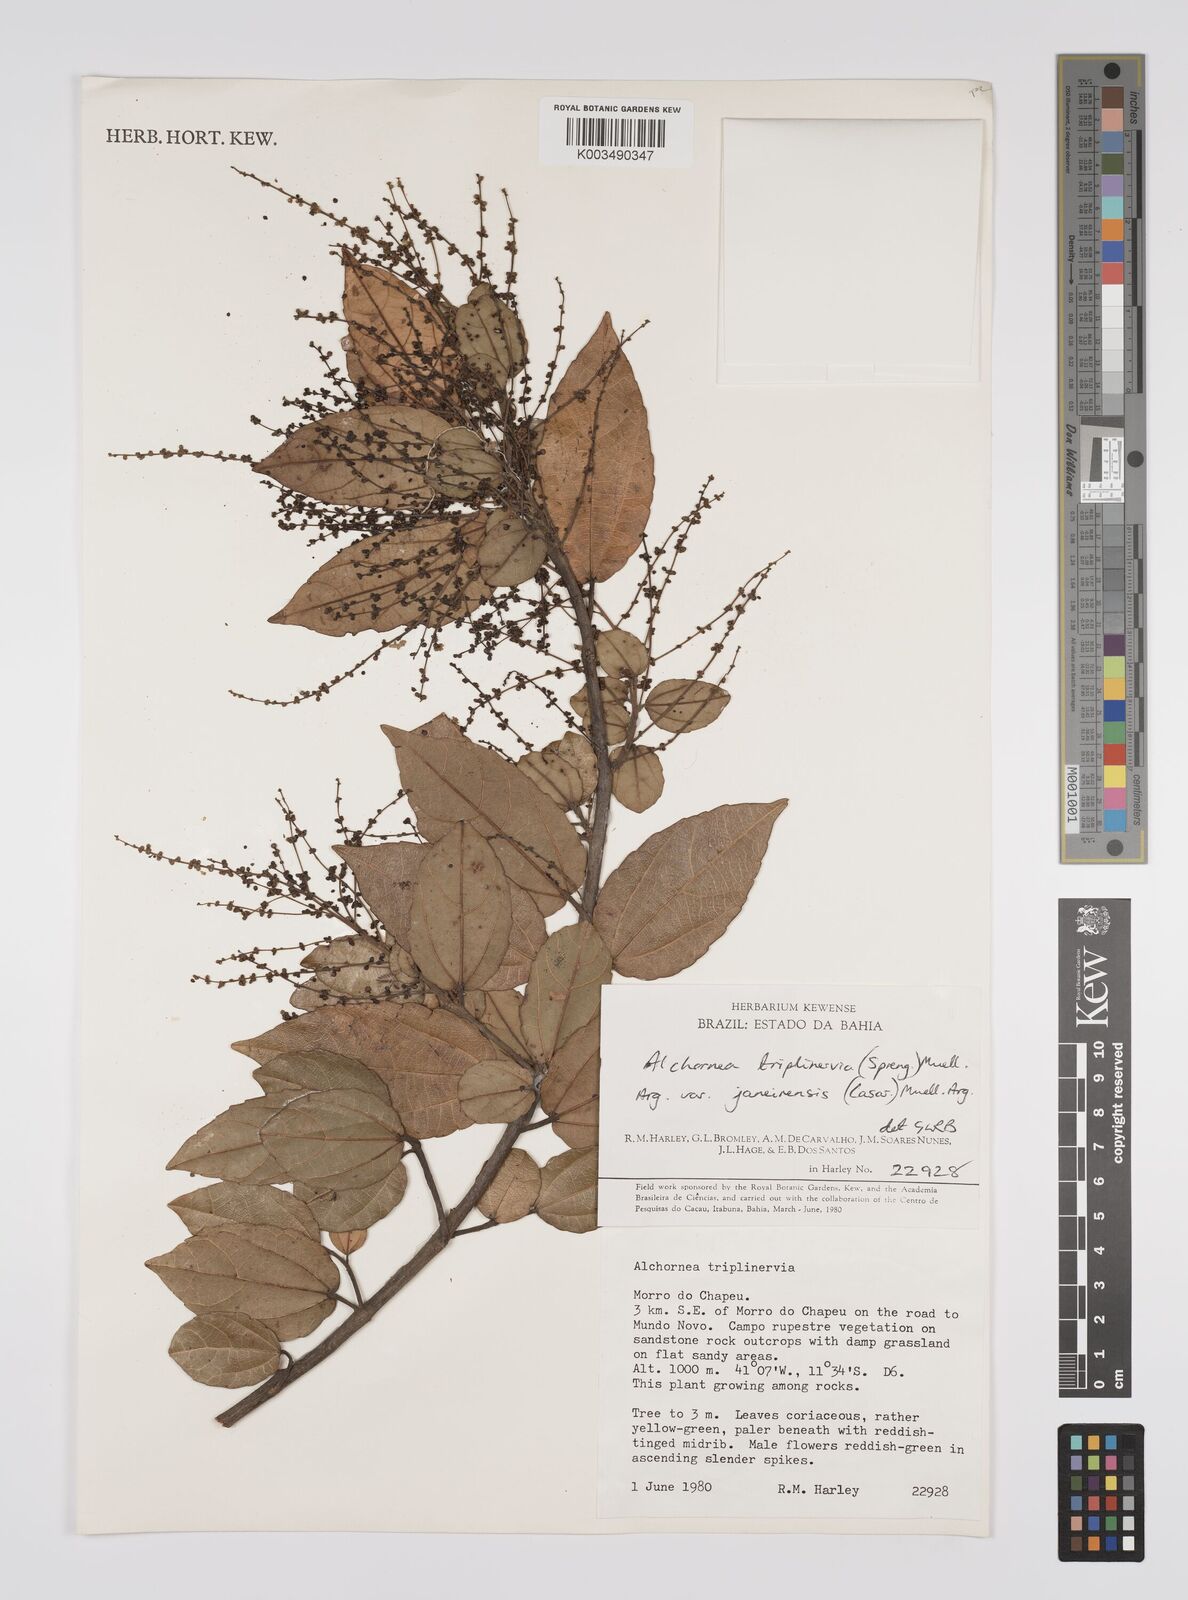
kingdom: Plantae
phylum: Tracheophyta
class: Magnoliopsida
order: Malpighiales
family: Euphorbiaceae
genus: Alchornea
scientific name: Alchornea triplinervia
